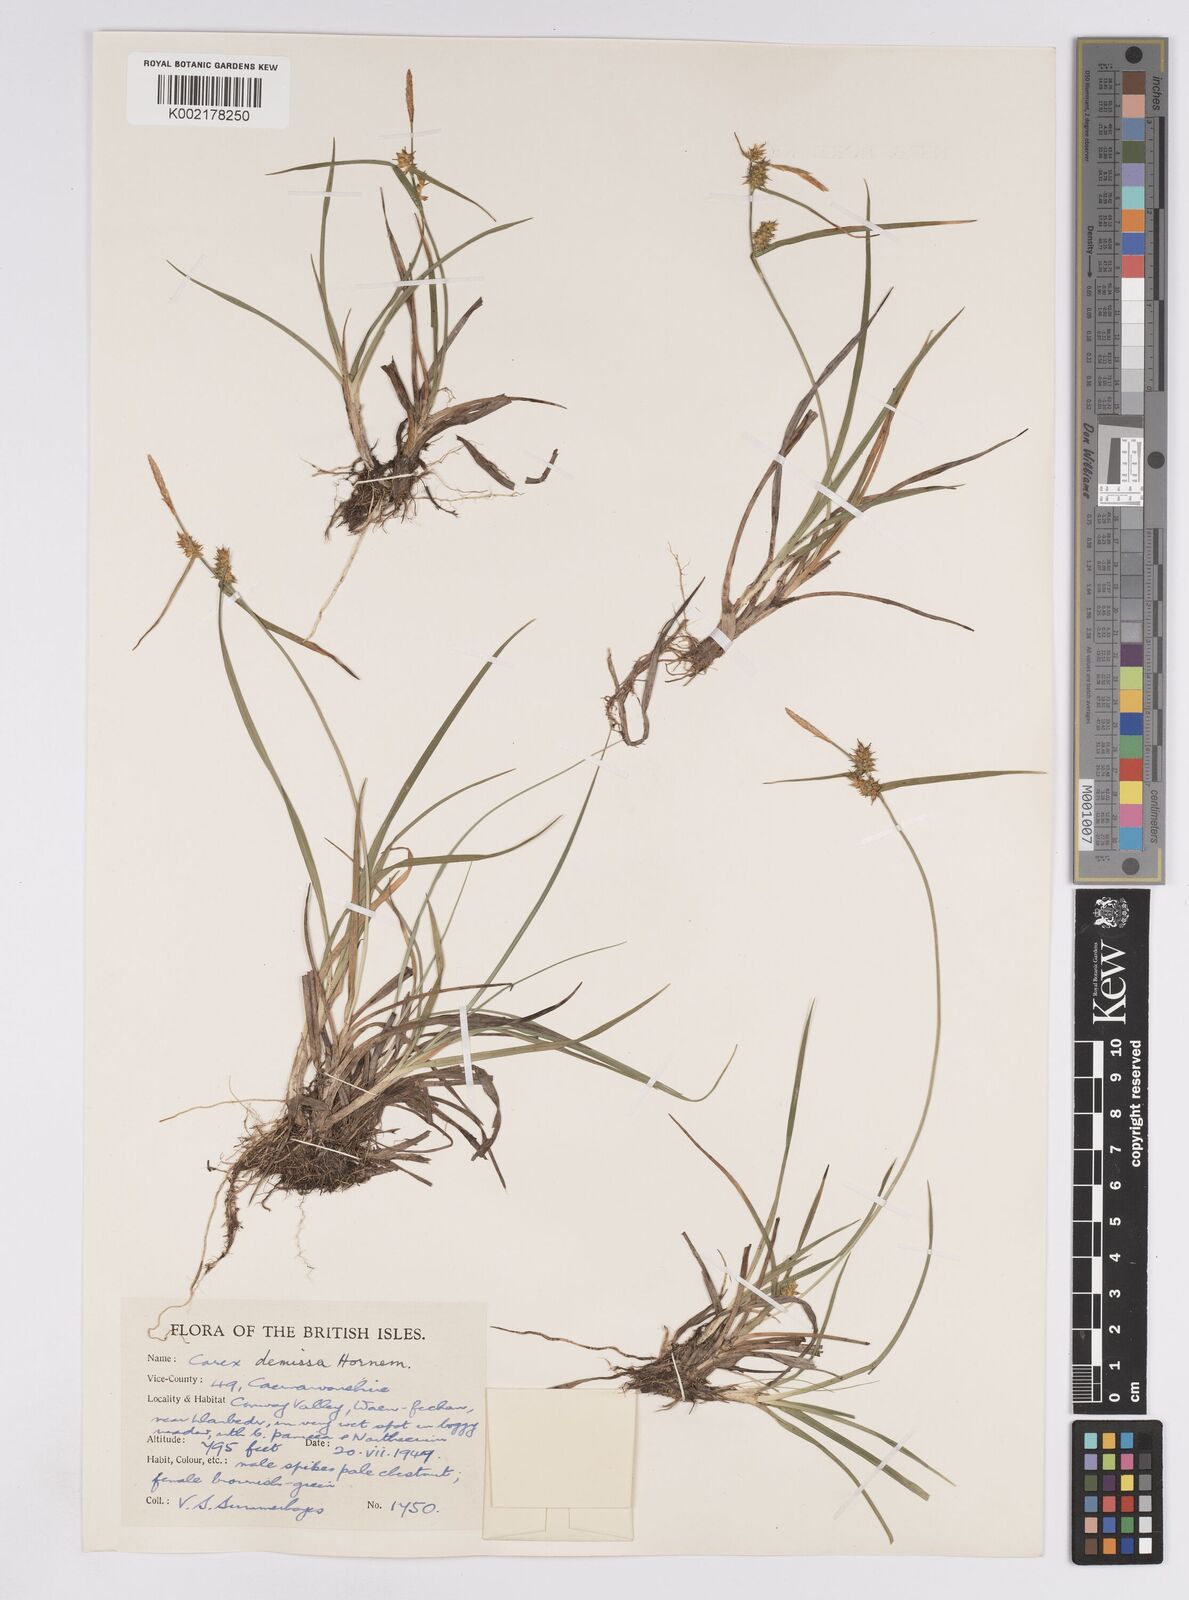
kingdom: Plantae
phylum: Tracheophyta
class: Liliopsida
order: Poales
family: Cyperaceae
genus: Carex
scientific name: Carex demissa
